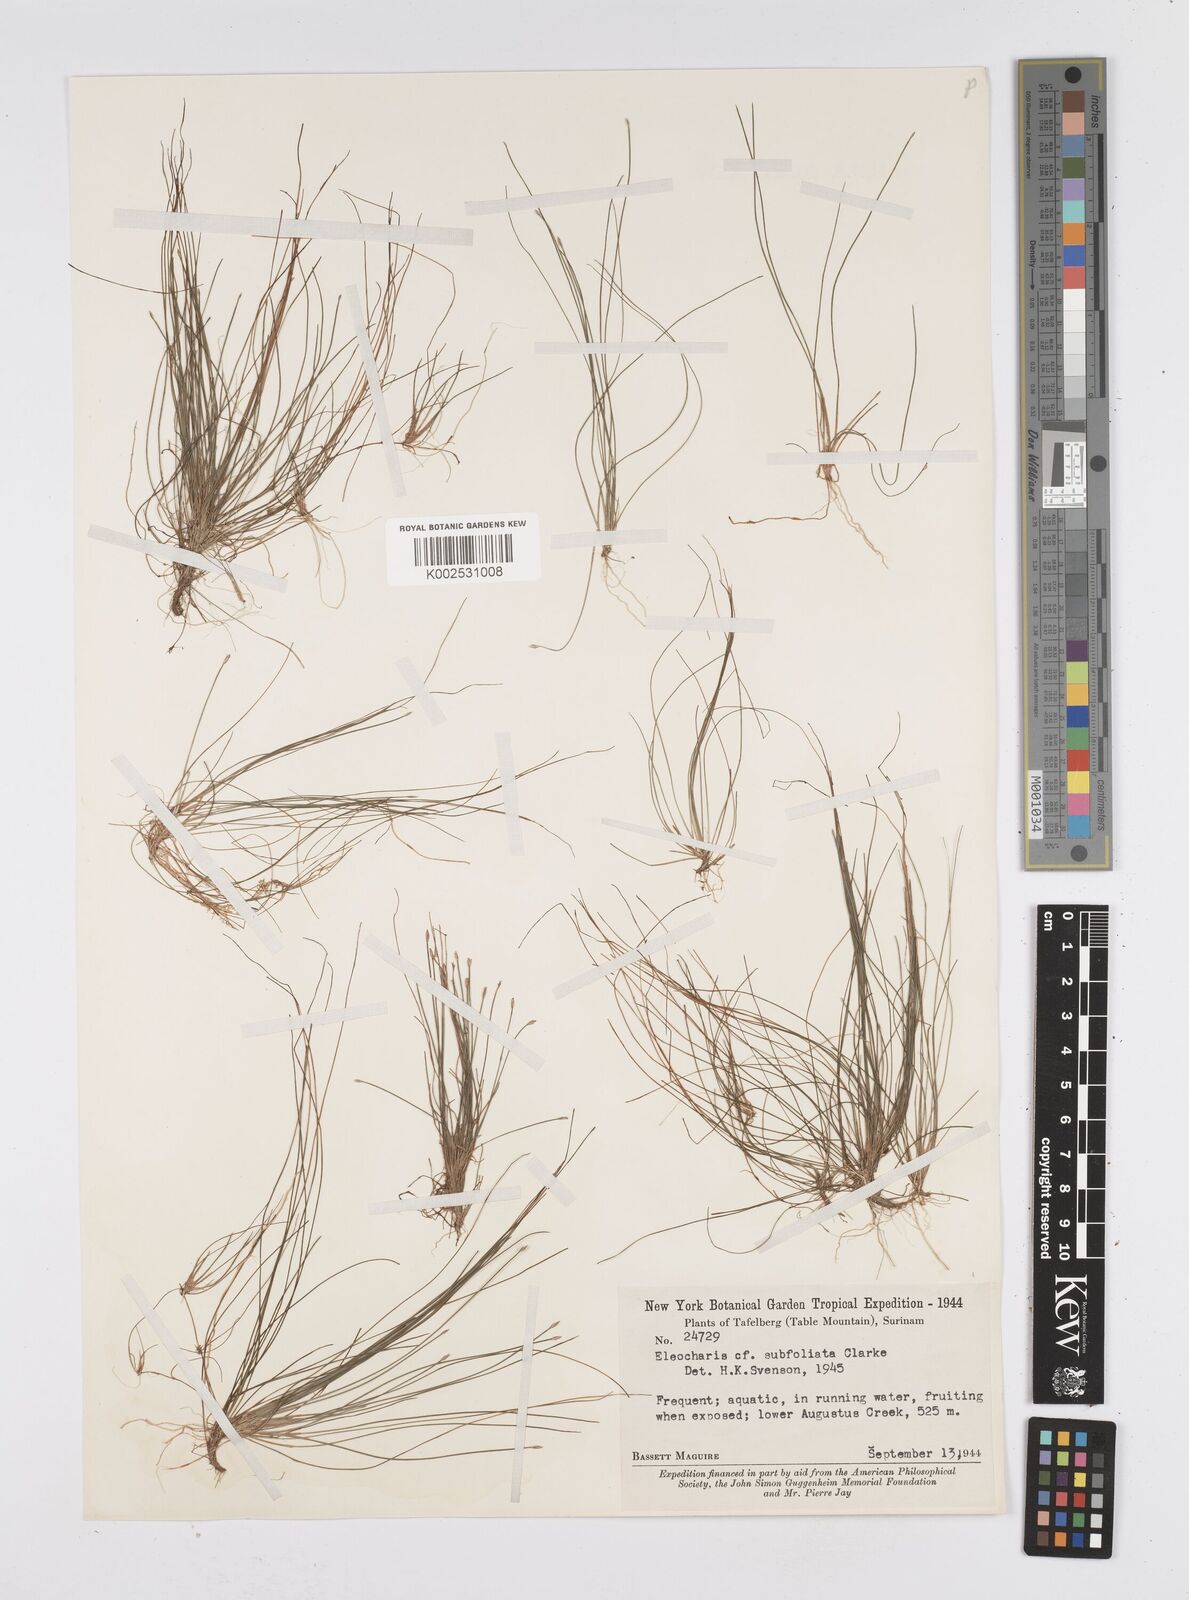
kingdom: Plantae
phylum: Tracheophyta
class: Liliopsida
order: Poales
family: Cyperaceae
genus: Eleocharis
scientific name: Eleocharis minima
